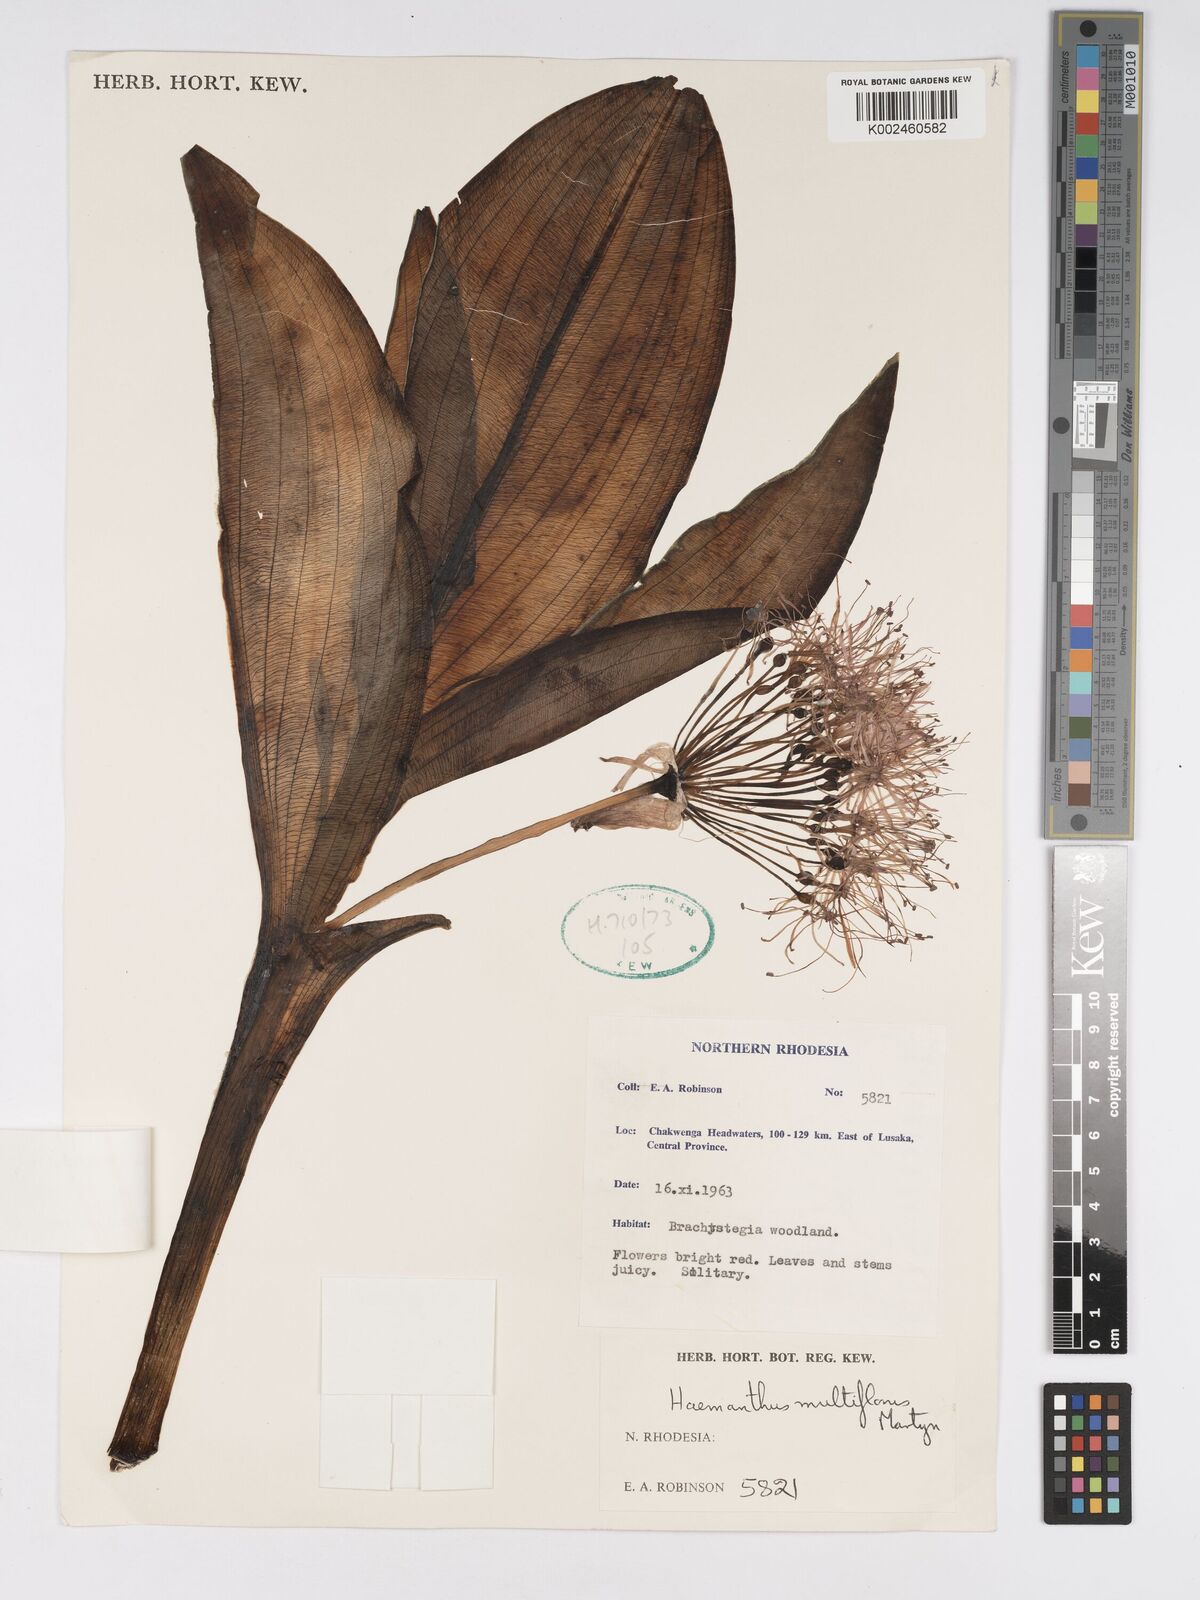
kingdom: Plantae
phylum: Tracheophyta
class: Liliopsida
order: Asparagales
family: Amaryllidaceae
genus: Scadoxus
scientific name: Scadoxus multiflorus
